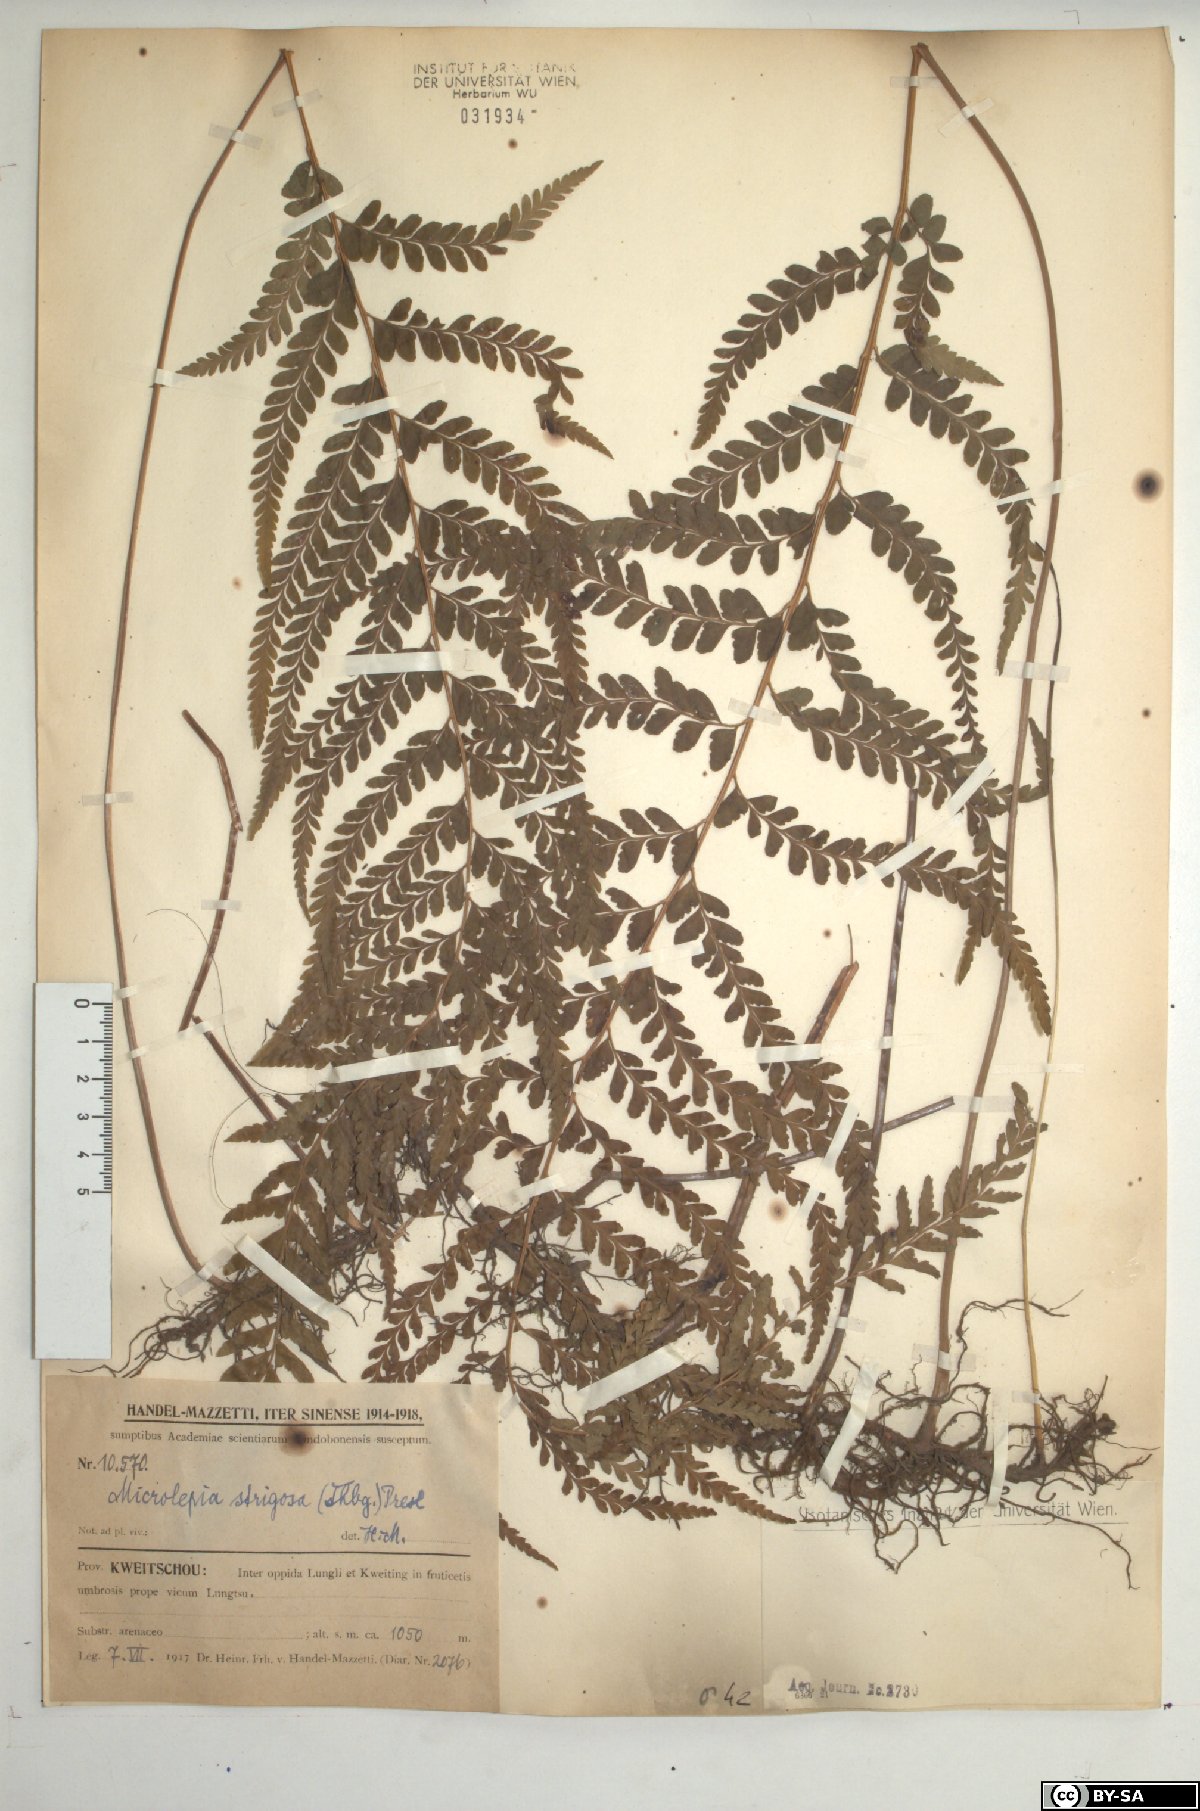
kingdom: Plantae
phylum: Tracheophyta
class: Polypodiopsida
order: Polypodiales
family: Dennstaedtiaceae
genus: Microlepia
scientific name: Microlepia strigosa
